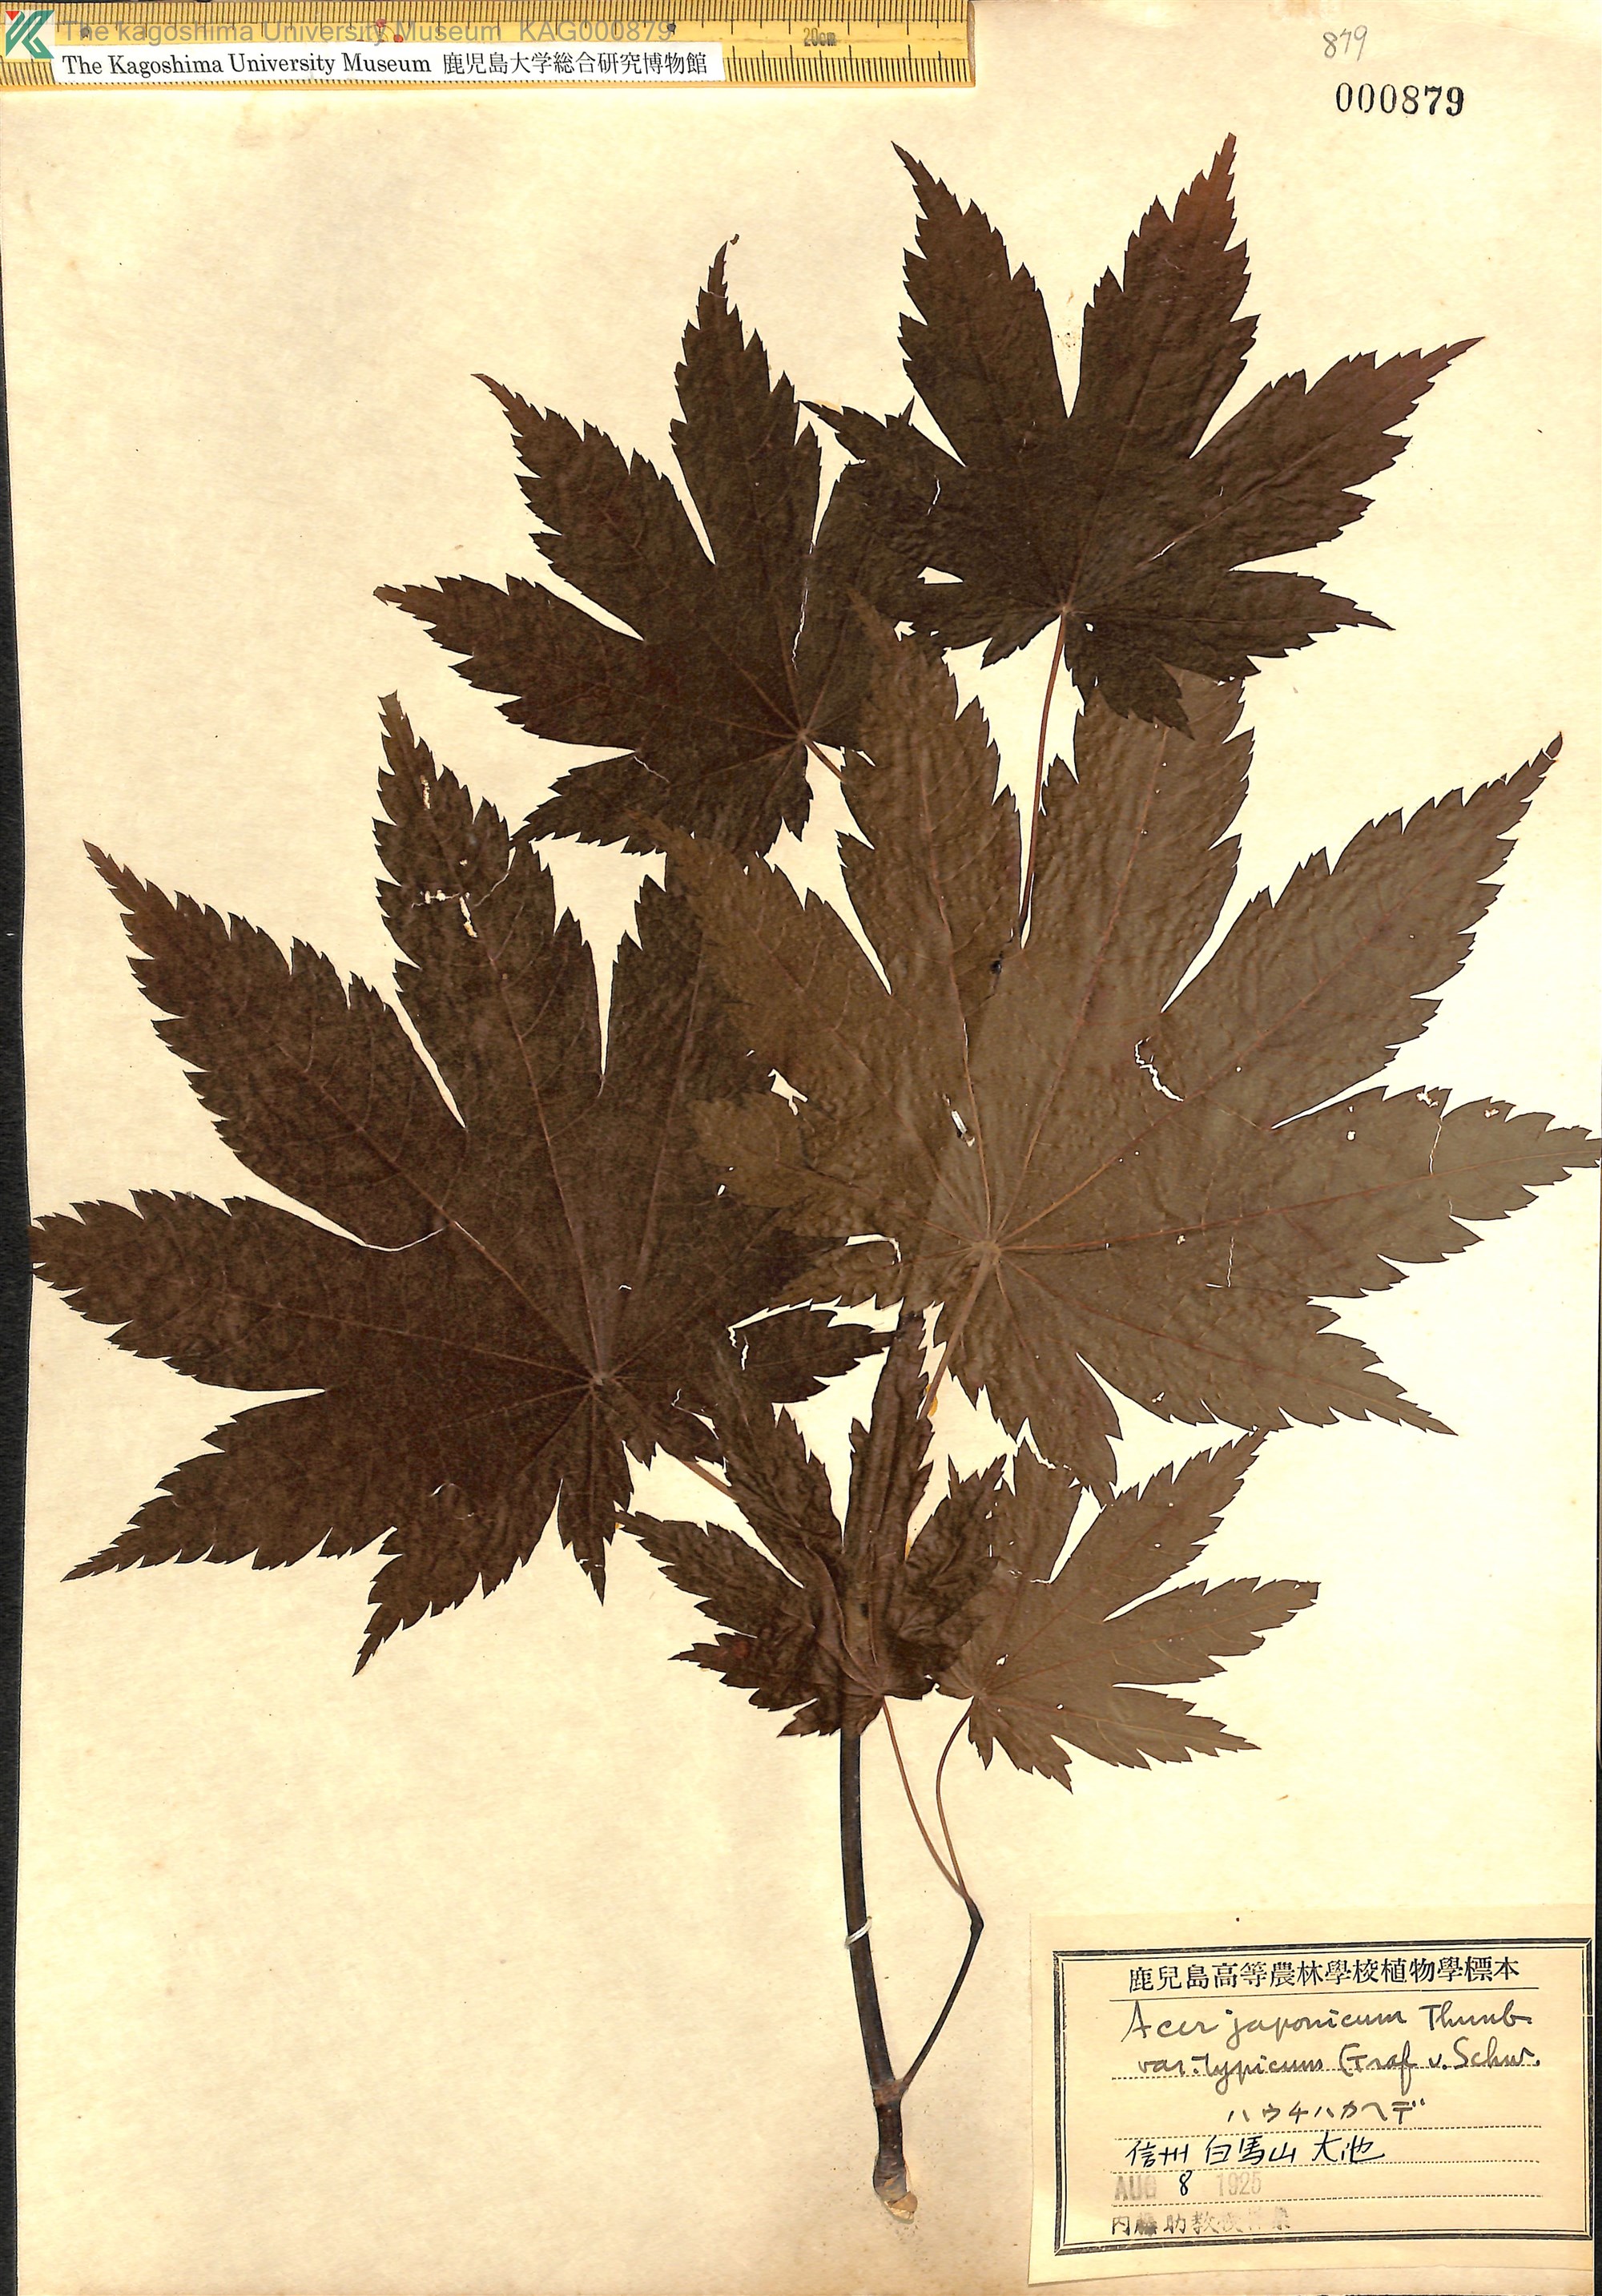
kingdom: Plantae
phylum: Tracheophyta
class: Magnoliopsida
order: Sapindales
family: Sapindaceae
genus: Acer
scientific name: Acer japonicum
